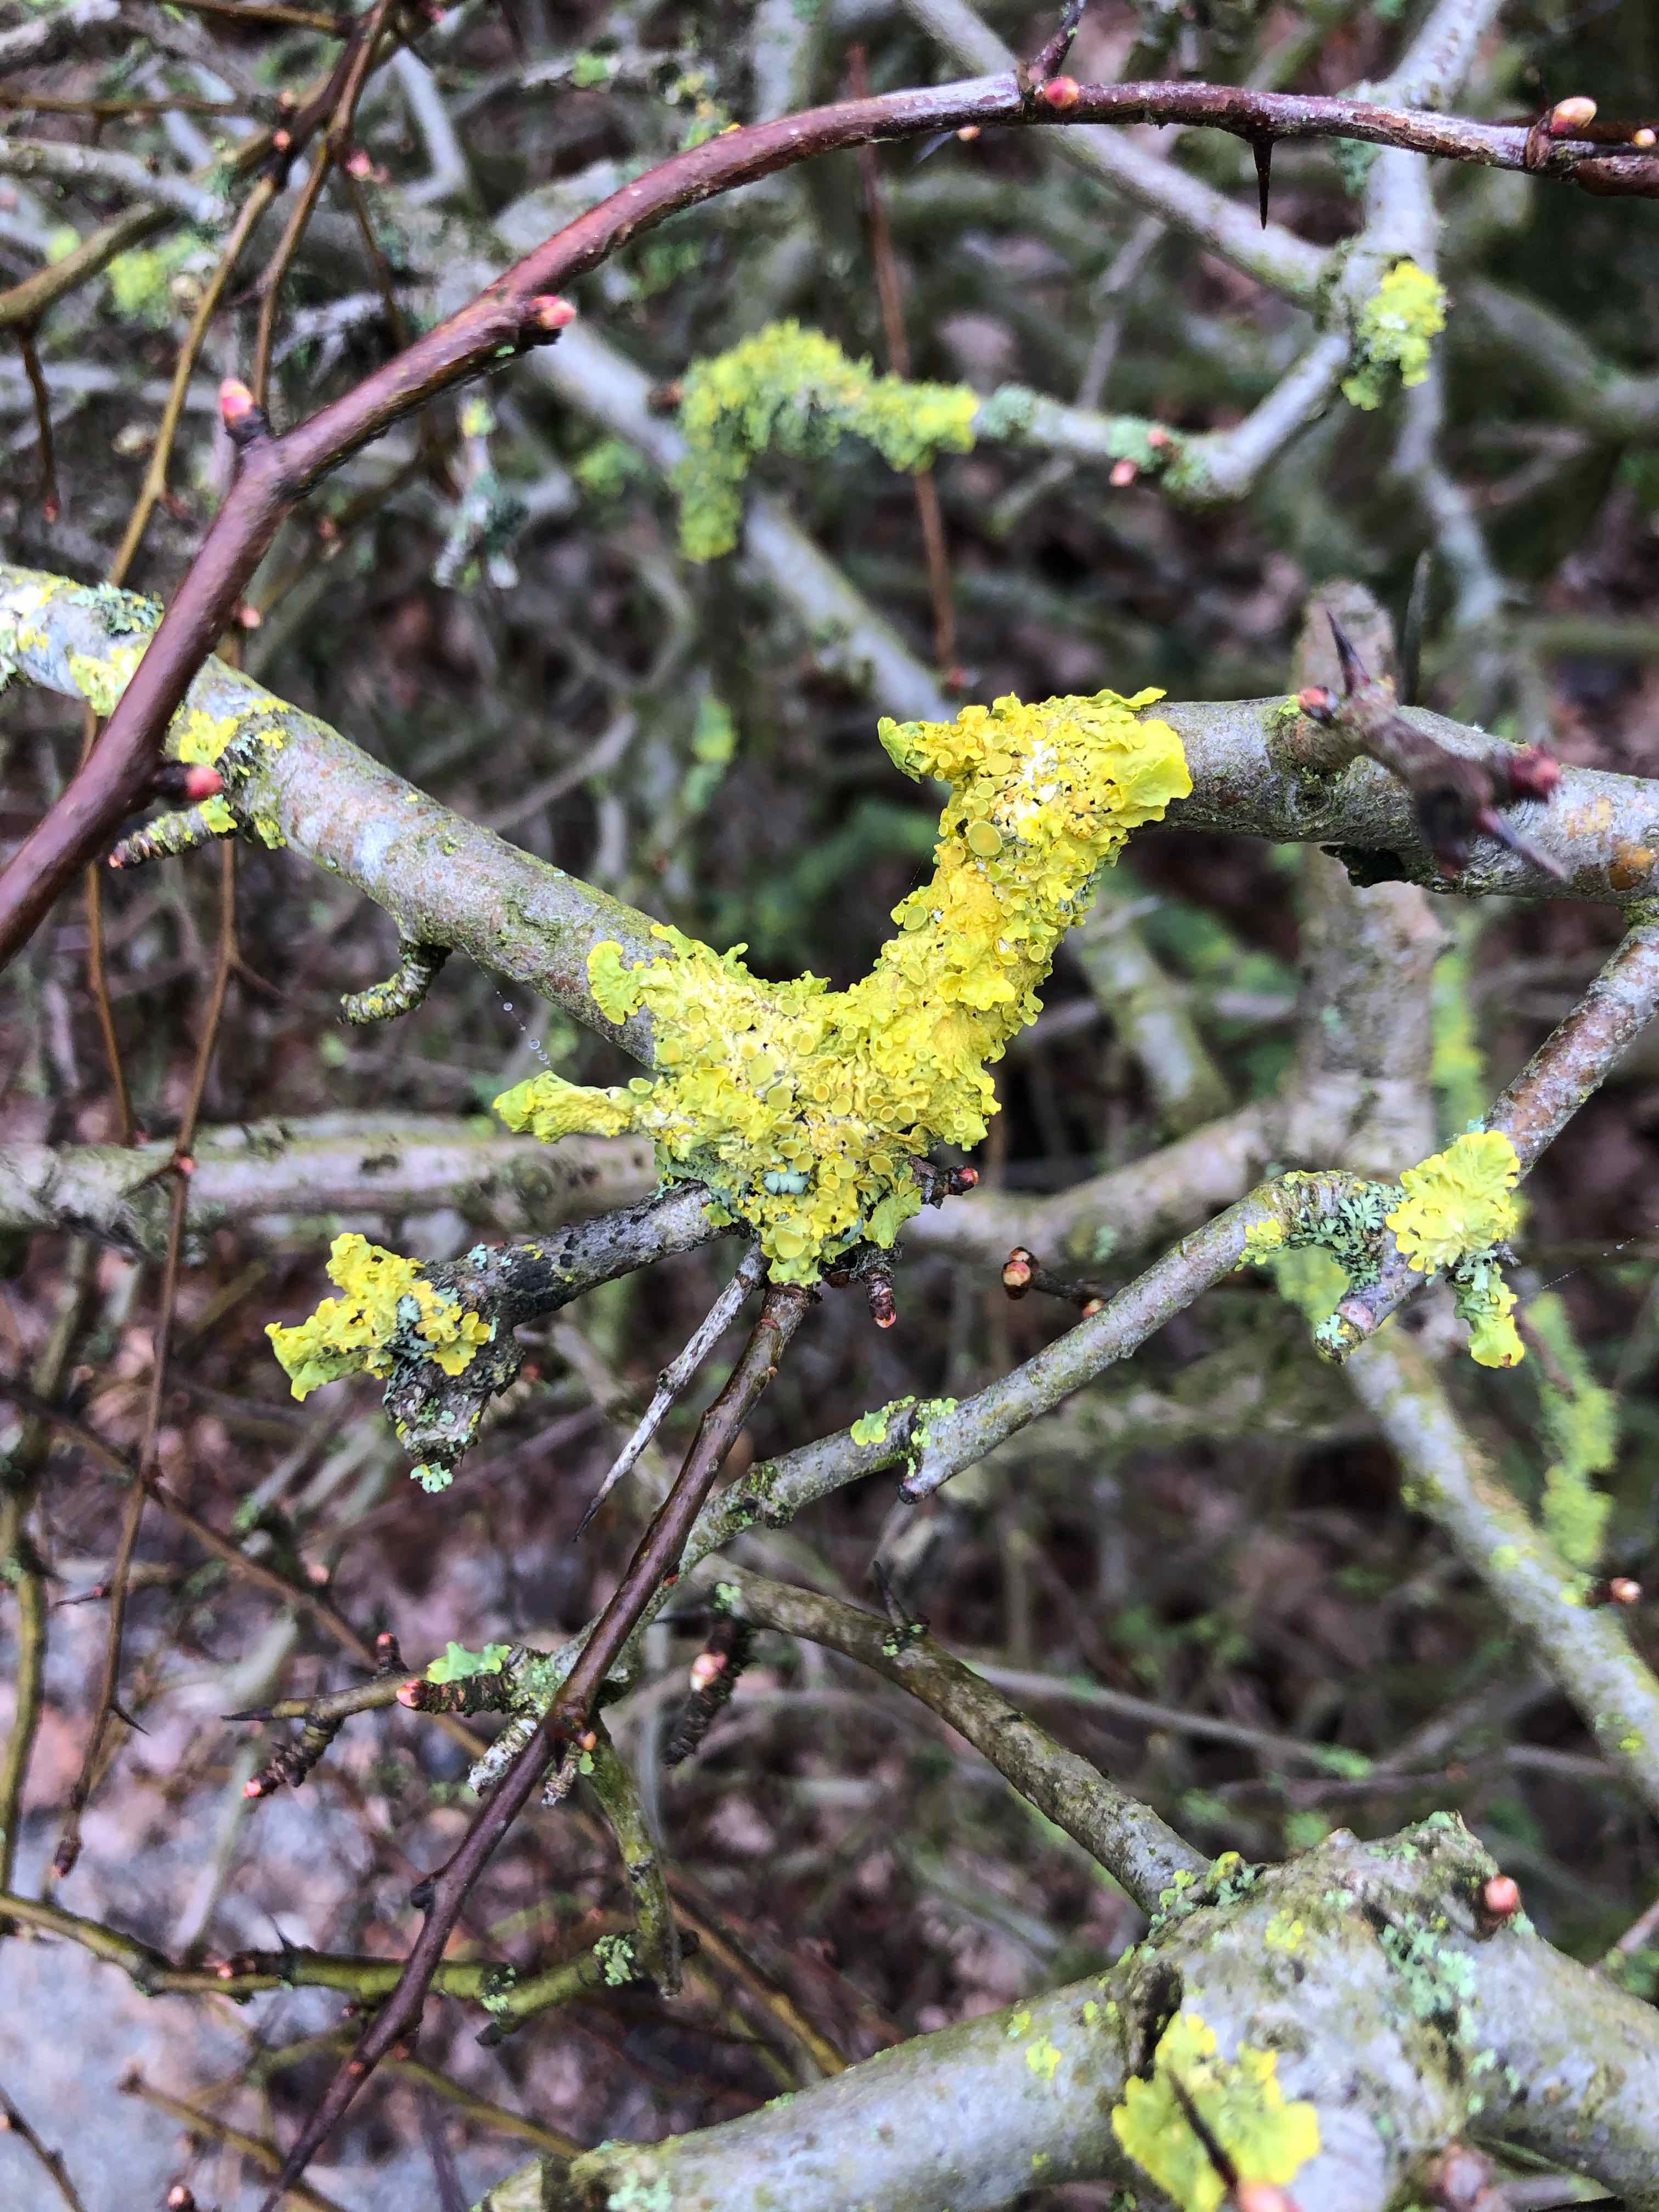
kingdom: Fungi
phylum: Ascomycota
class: Lecanoromycetes
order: Teloschistales
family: Teloschistaceae
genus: Xanthoria
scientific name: Xanthoria parietina
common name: almindelig væggelav
